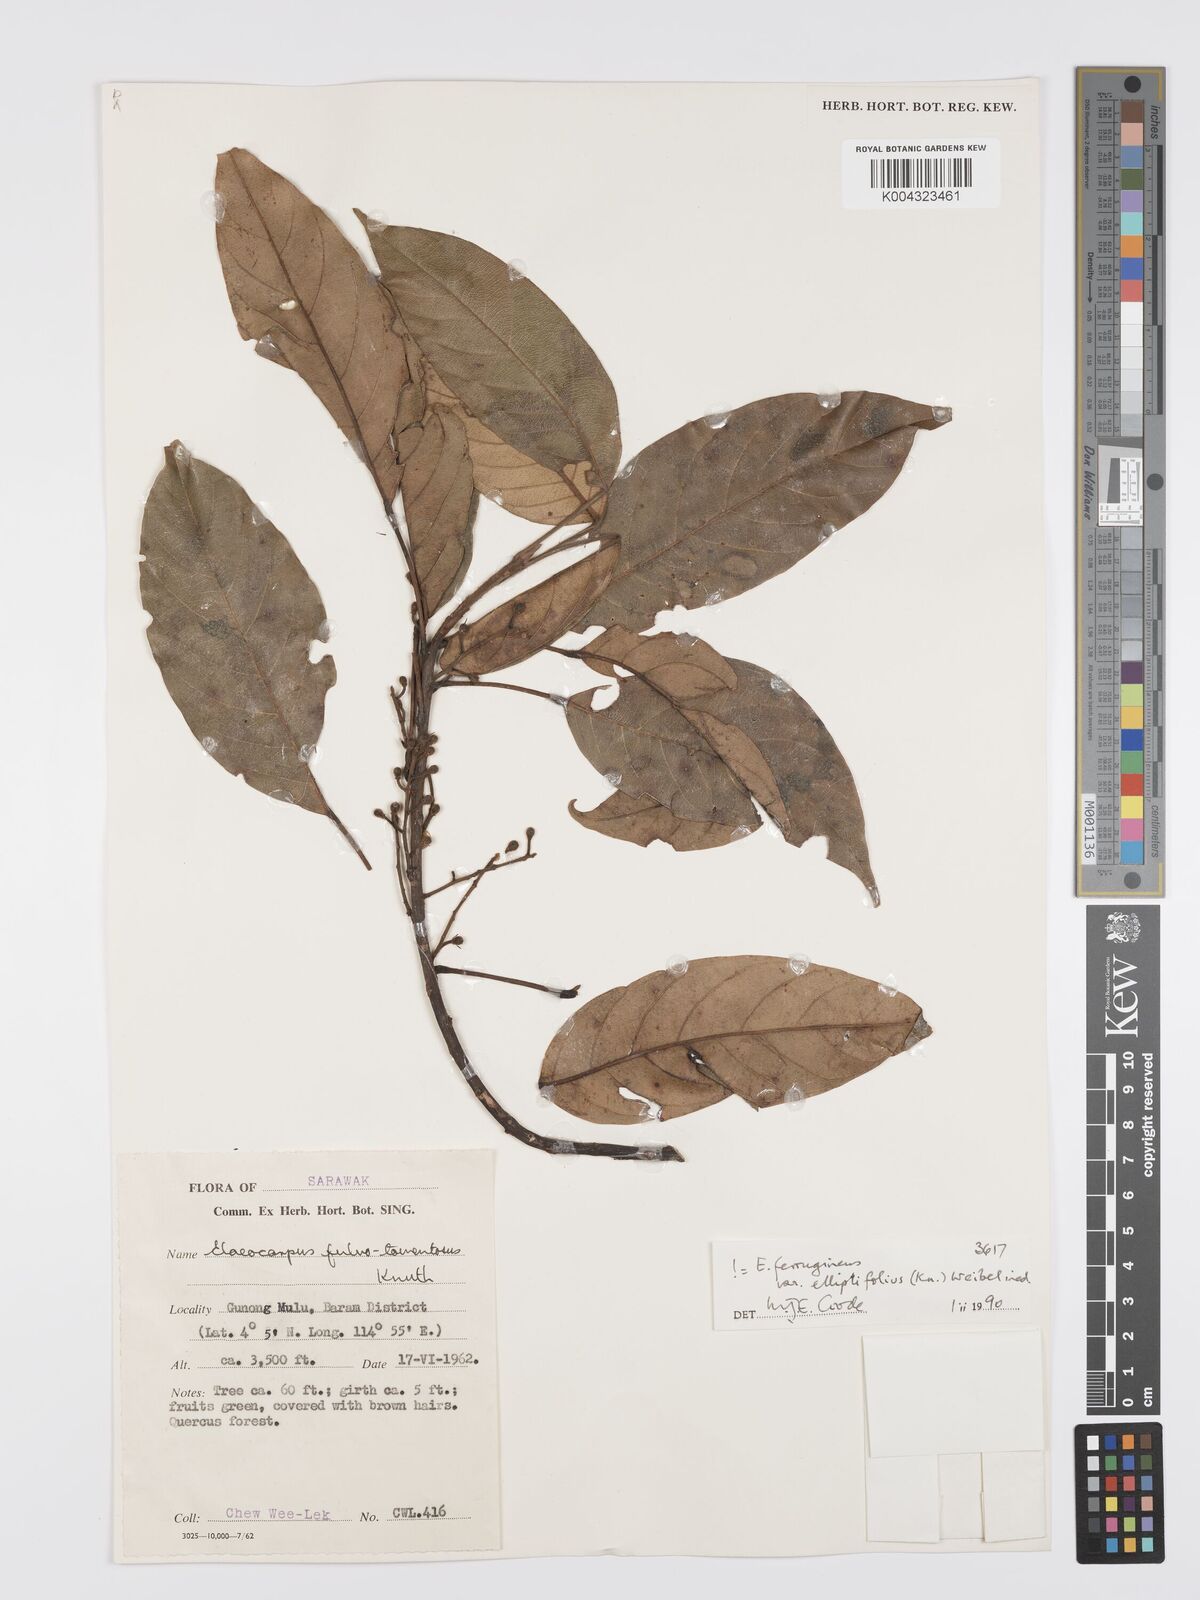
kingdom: Plantae
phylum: Tracheophyta
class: Magnoliopsida
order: Oxalidales
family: Elaeocarpaceae
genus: Elaeocarpus
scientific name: Elaeocarpus ferrugineus
